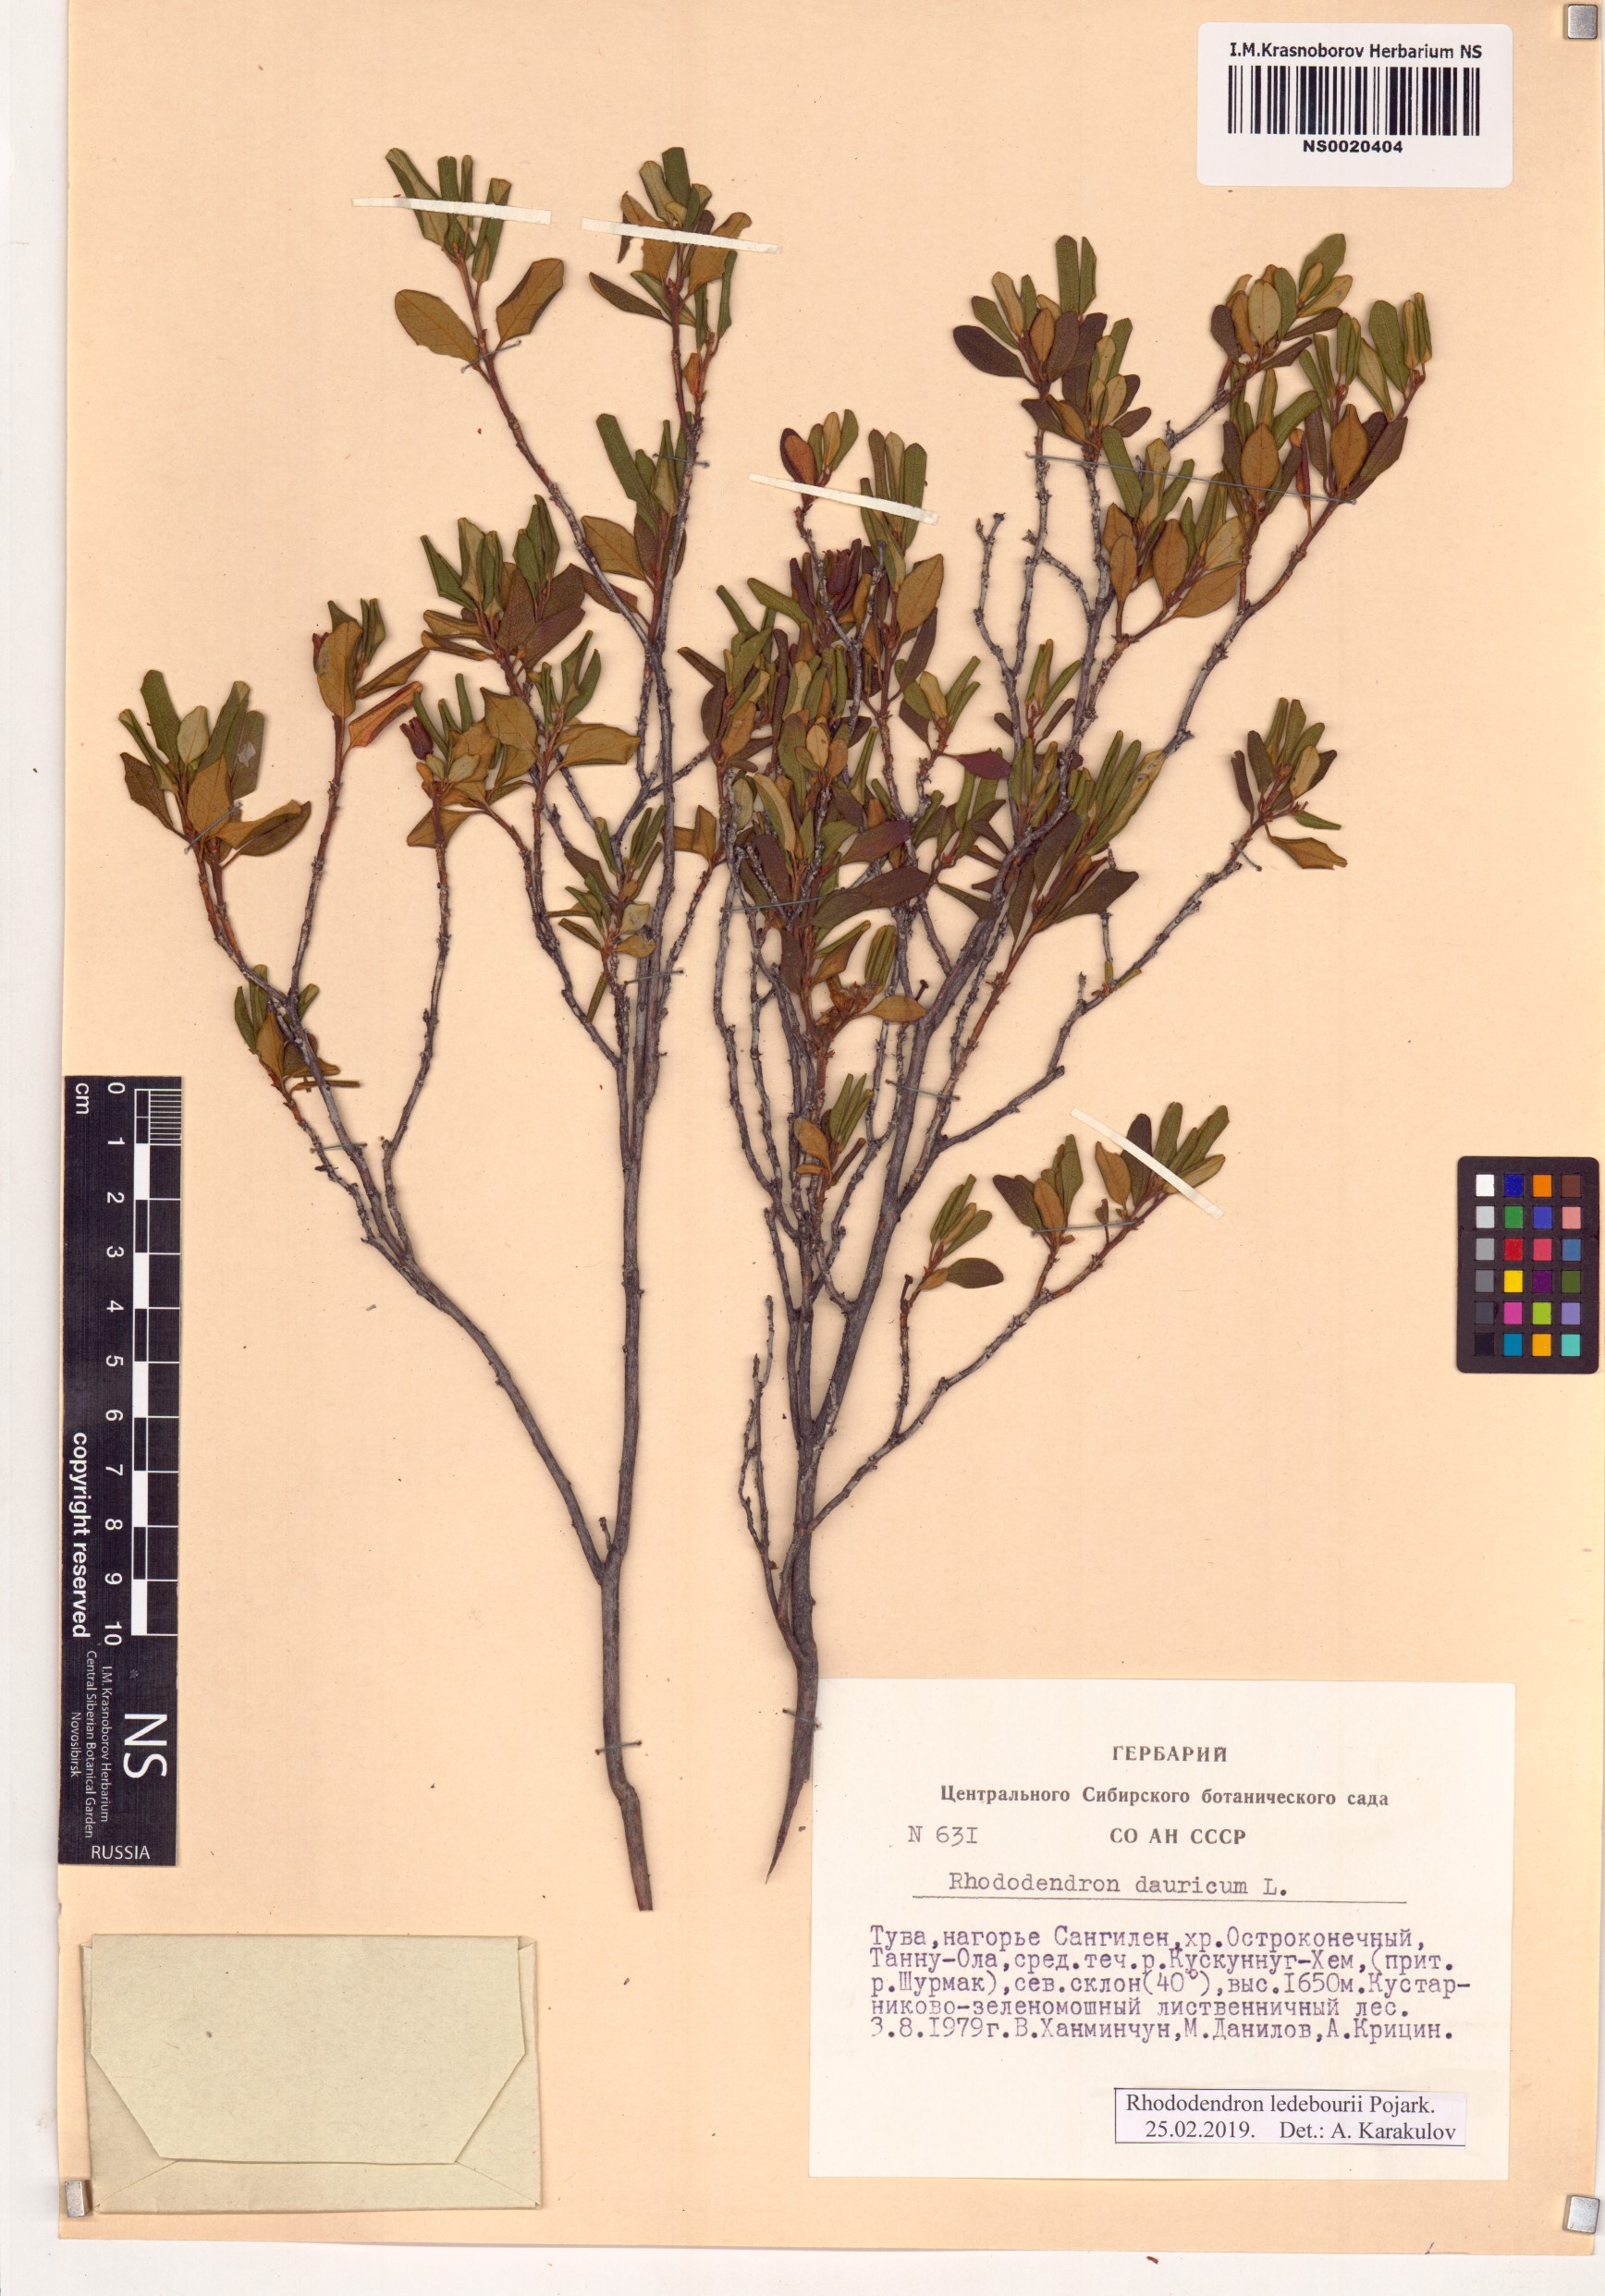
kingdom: Plantae
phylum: Tracheophyta
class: Magnoliopsida
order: Ericales
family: Ericaceae
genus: Rhododendron
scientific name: Rhododendron dauricum
